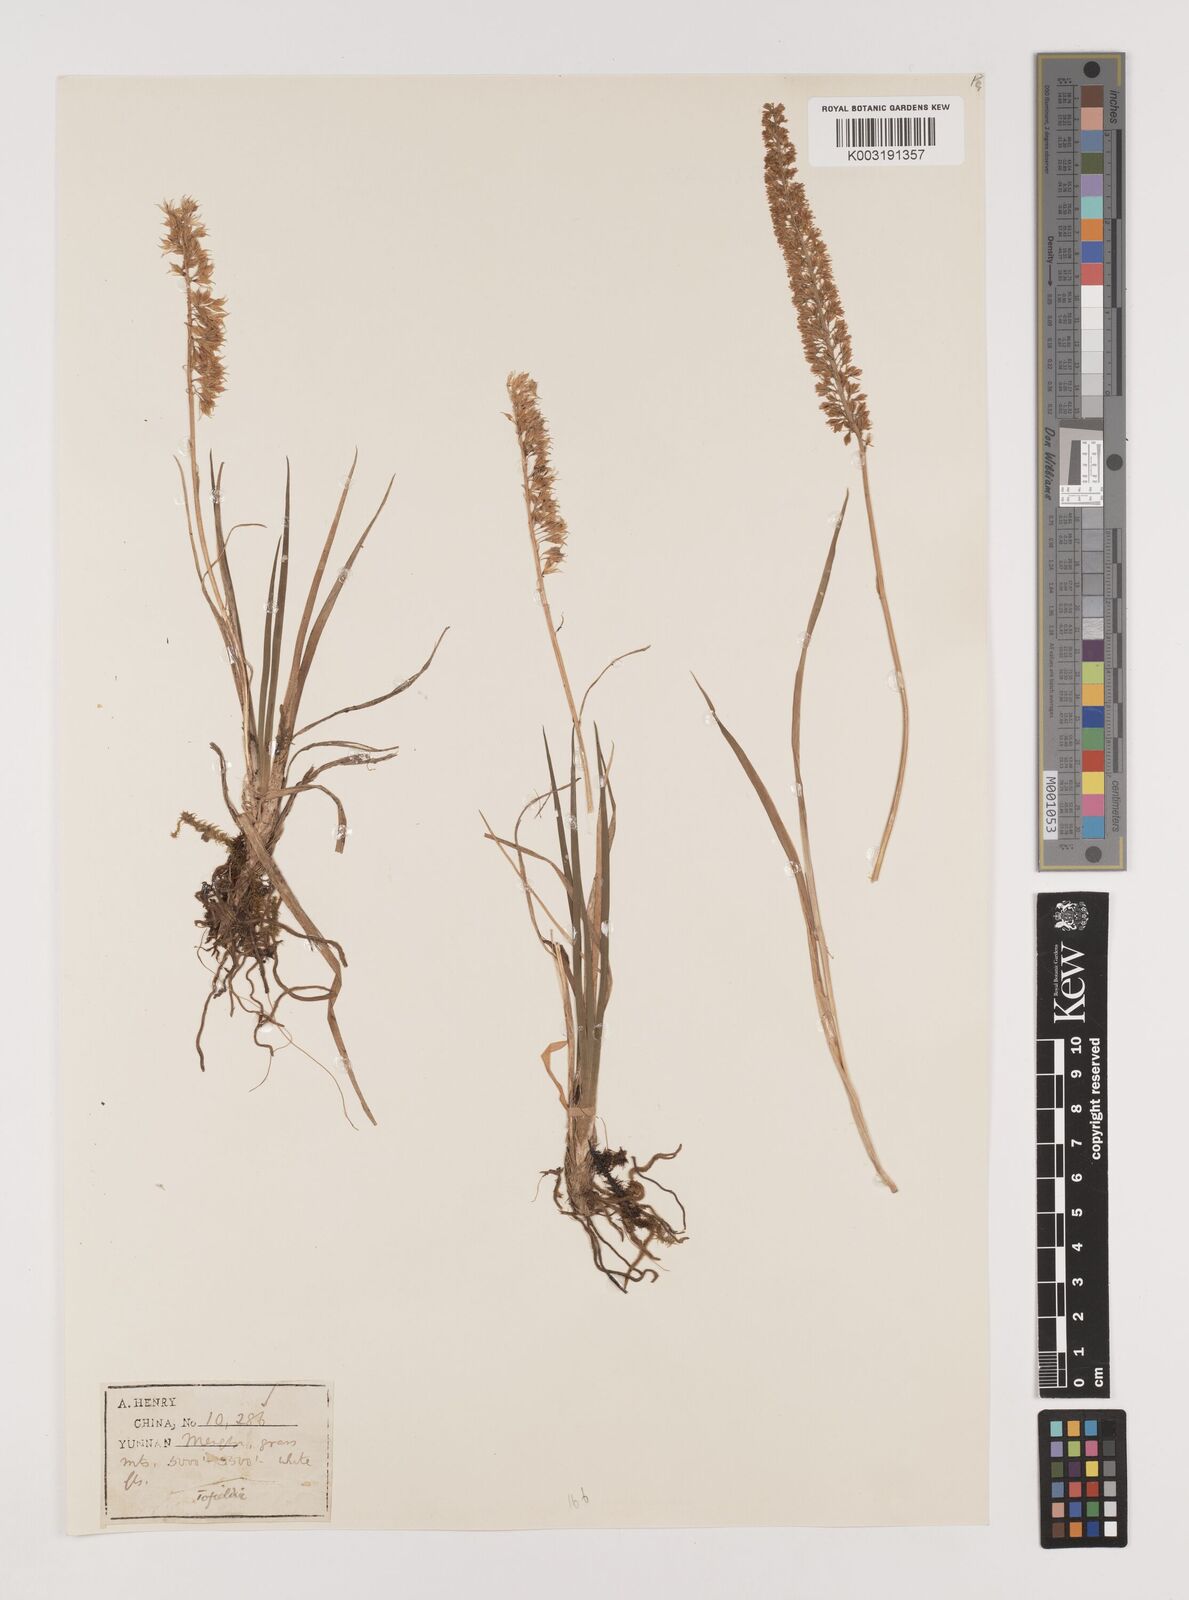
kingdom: Plantae
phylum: Tracheophyta
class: Liliopsida
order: Alismatales
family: Tofieldiaceae
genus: Tofieldia
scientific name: Tofieldia
